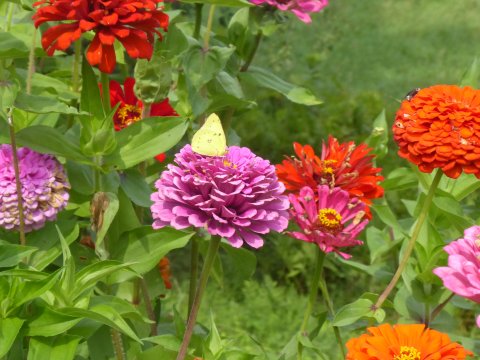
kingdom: Animalia
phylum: Arthropoda
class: Insecta
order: Lepidoptera
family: Pieridae
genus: Colias
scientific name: Colias philodice
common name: Clouded Sulphur
